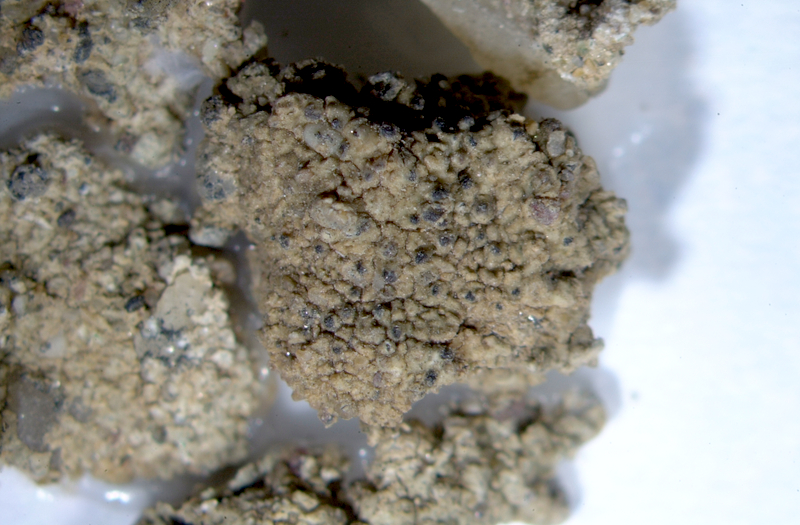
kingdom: Fungi
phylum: Ascomycota
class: Lecanoromycetes
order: Teloschistales
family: Teloschistaceae
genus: Stellarangia
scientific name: Stellarangia elegantissima
